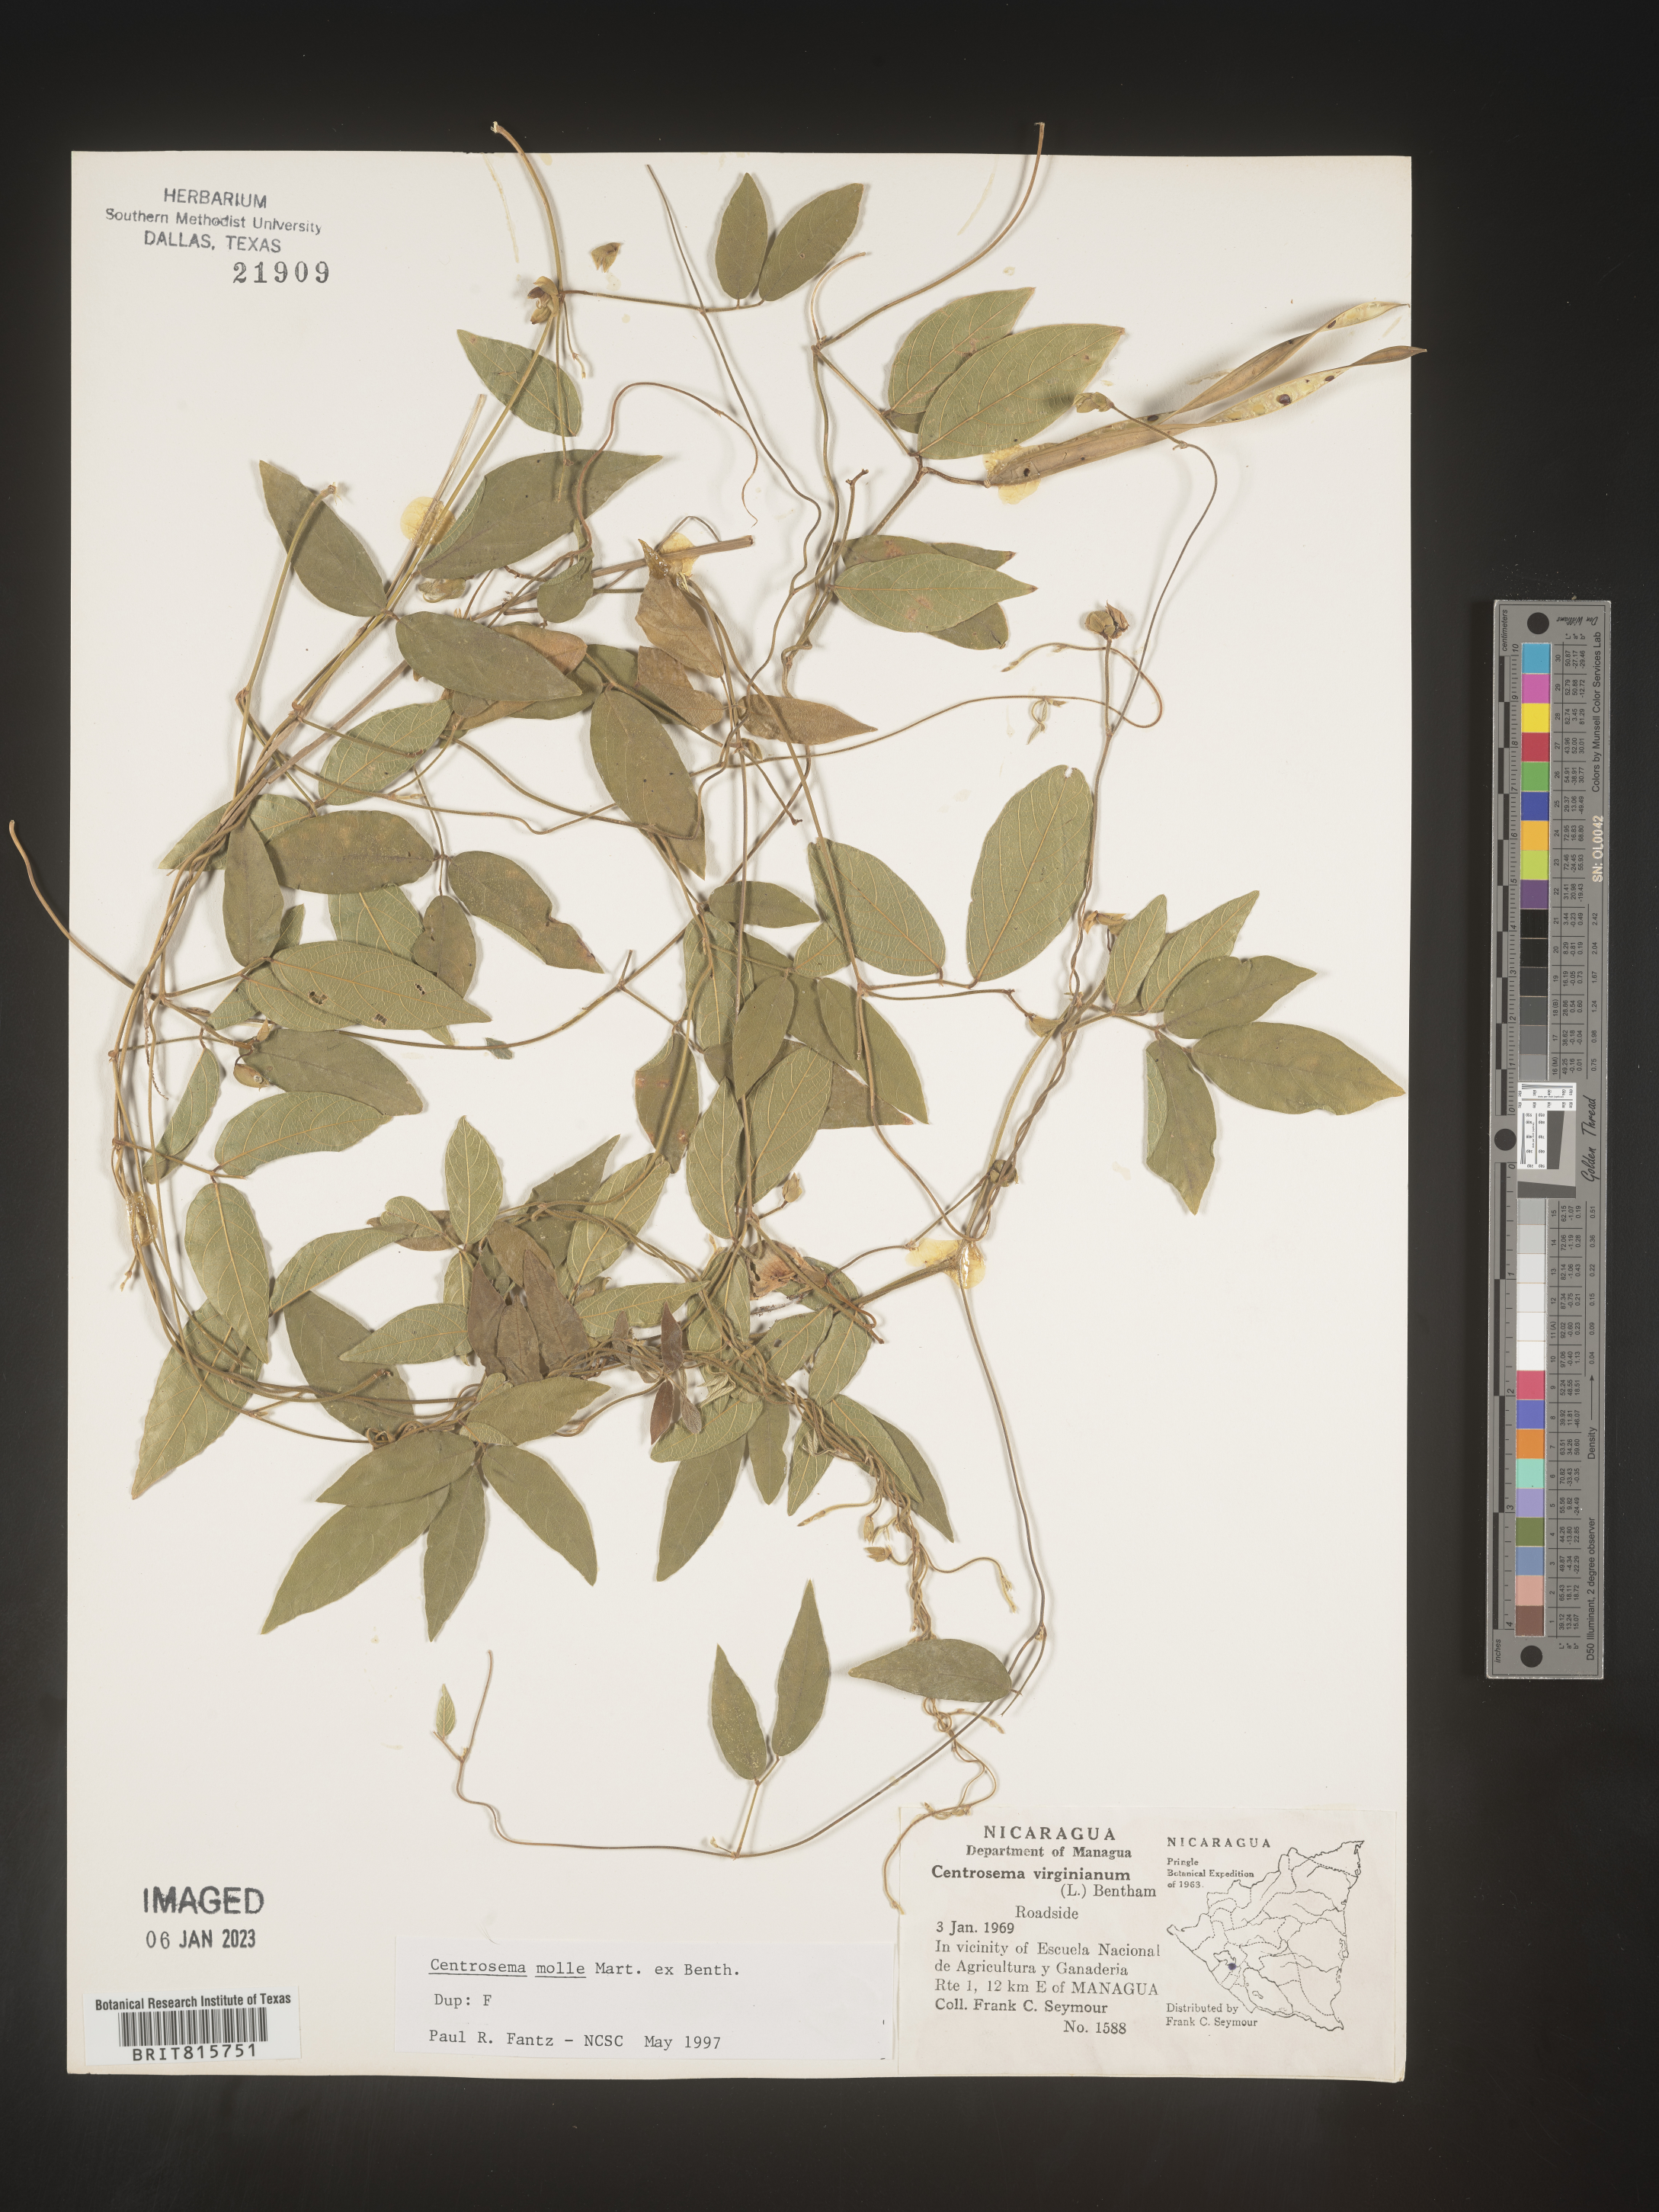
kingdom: Plantae
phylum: Tracheophyta
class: Magnoliopsida
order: Fabales
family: Fabaceae
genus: Centrosema
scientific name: Centrosema
